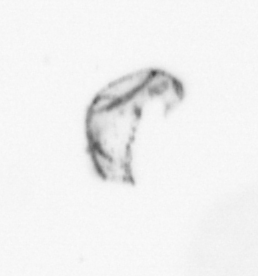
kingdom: Animalia
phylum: Arthropoda
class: Maxillopoda
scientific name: Maxillopoda
